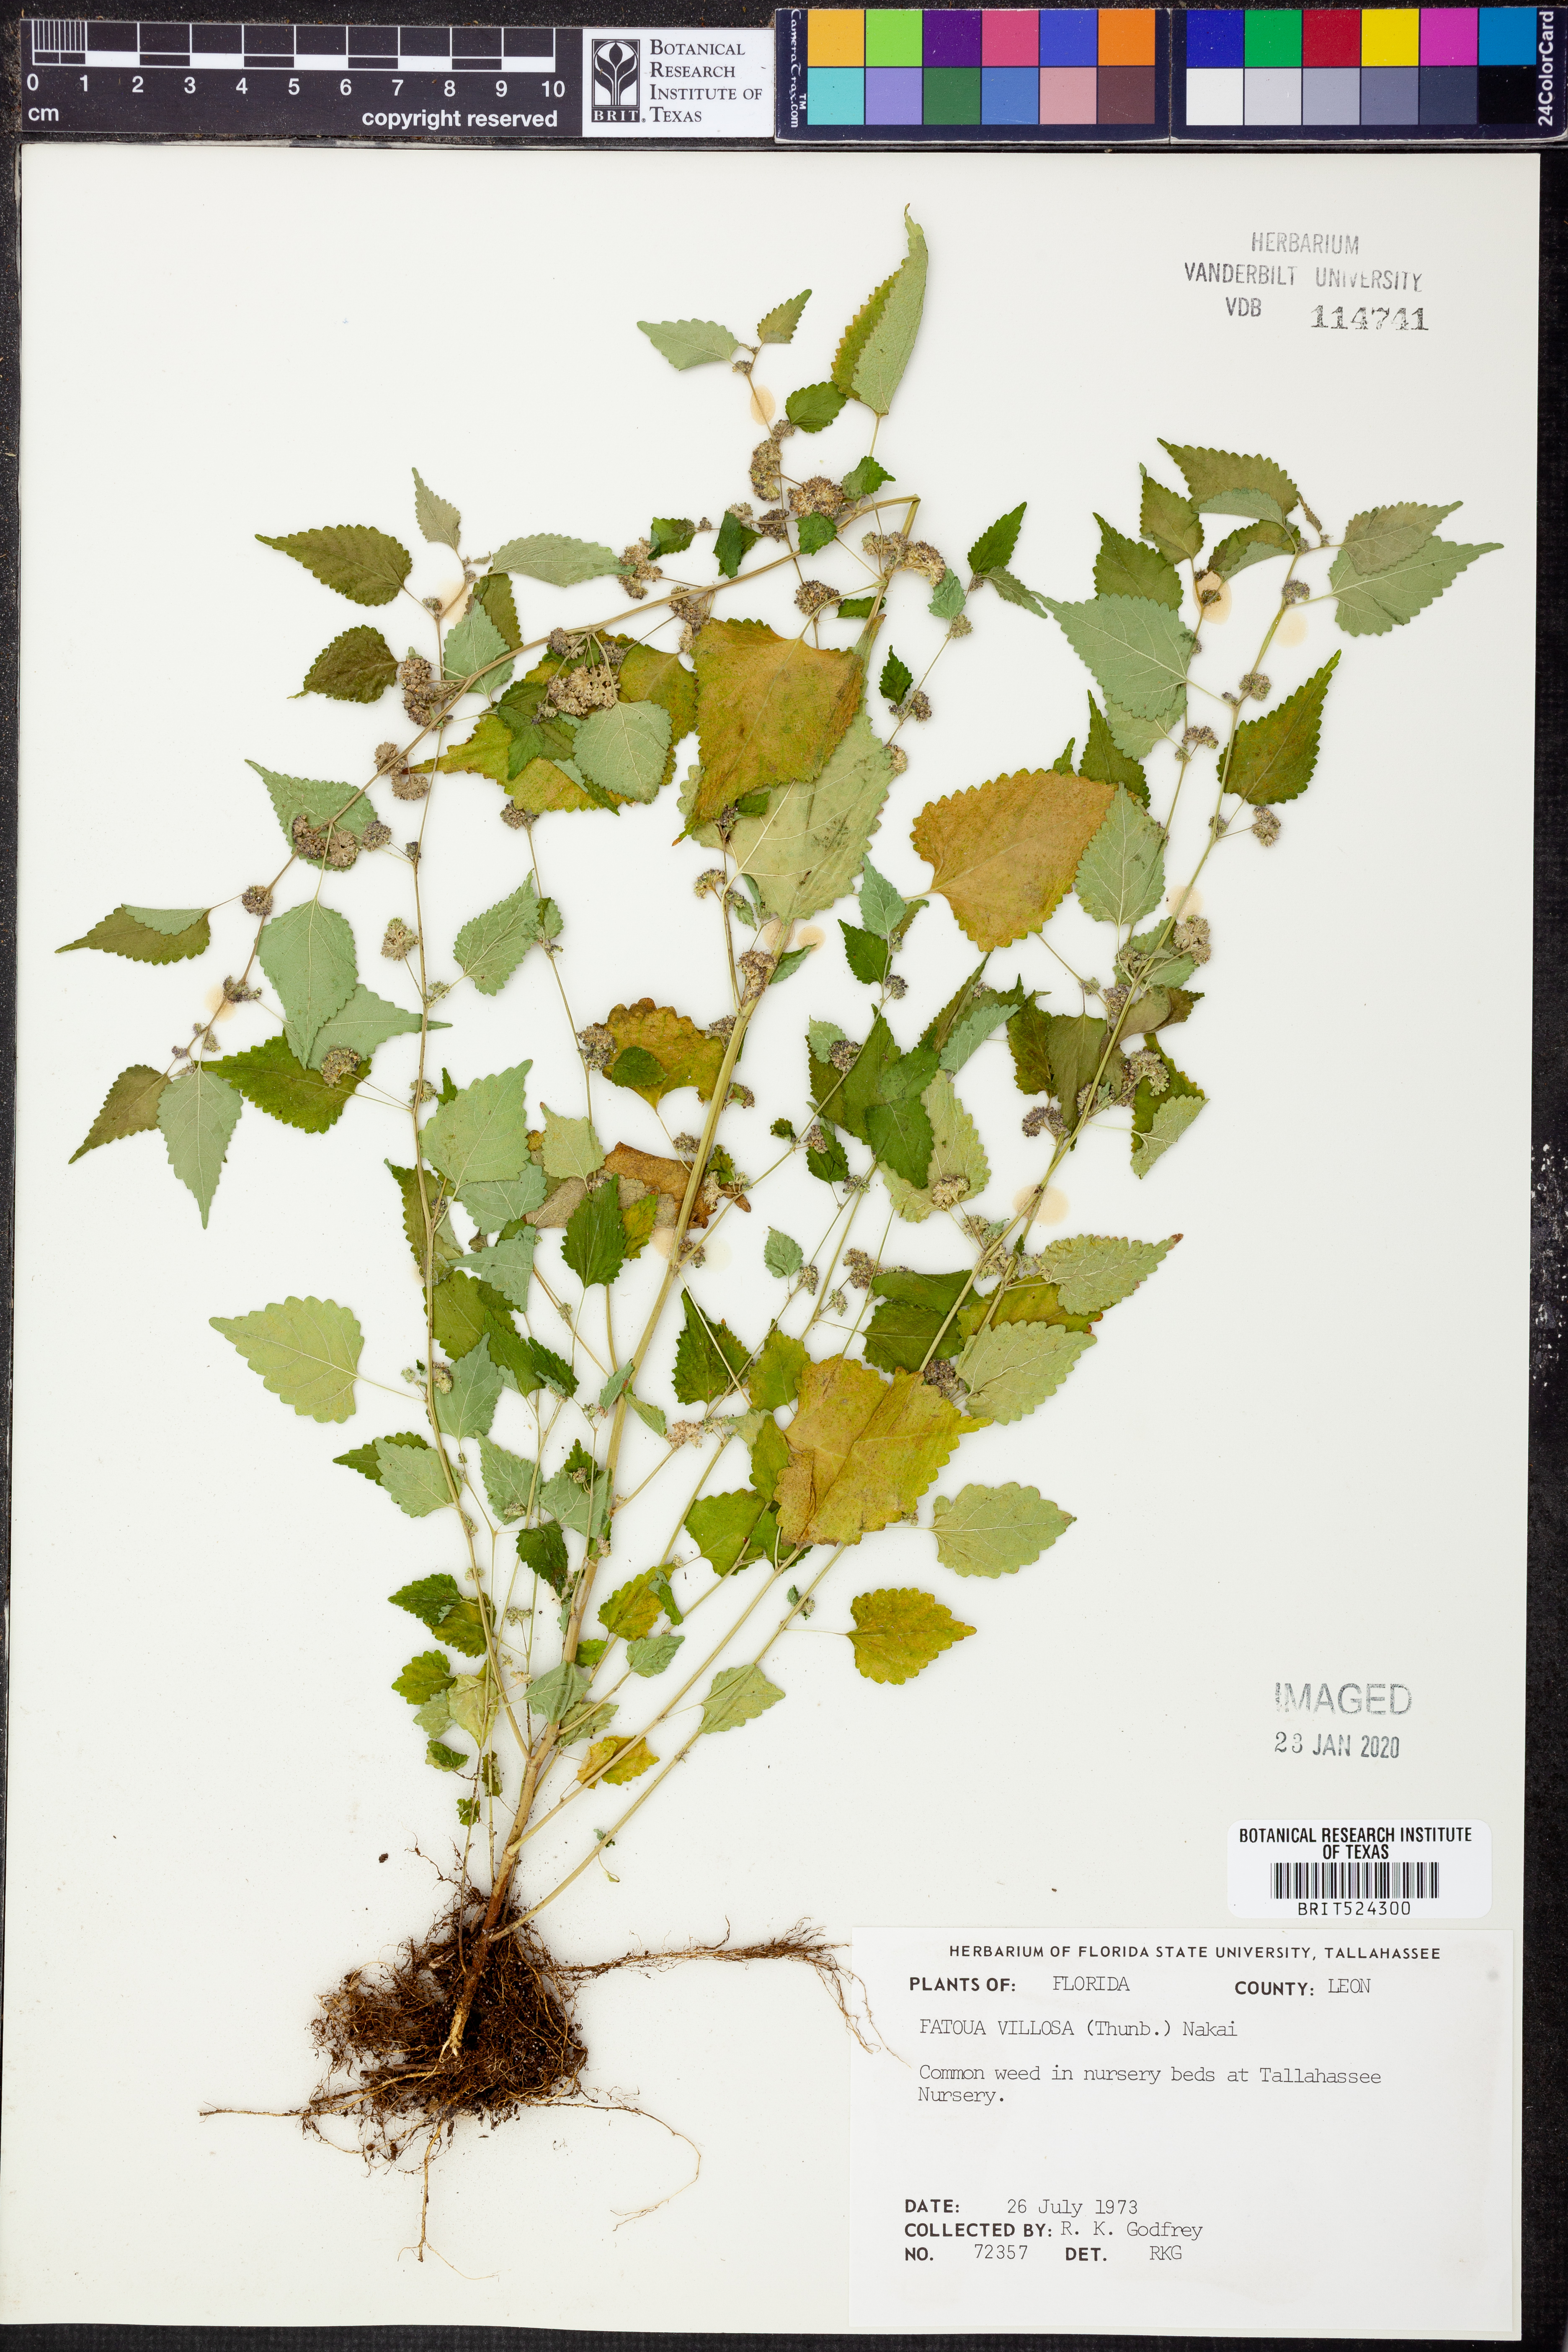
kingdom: Plantae
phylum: Tracheophyta
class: Magnoliopsida
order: Rosales
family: Moraceae
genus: Fatoua
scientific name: Fatoua villosa
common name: Hairy crabweed
